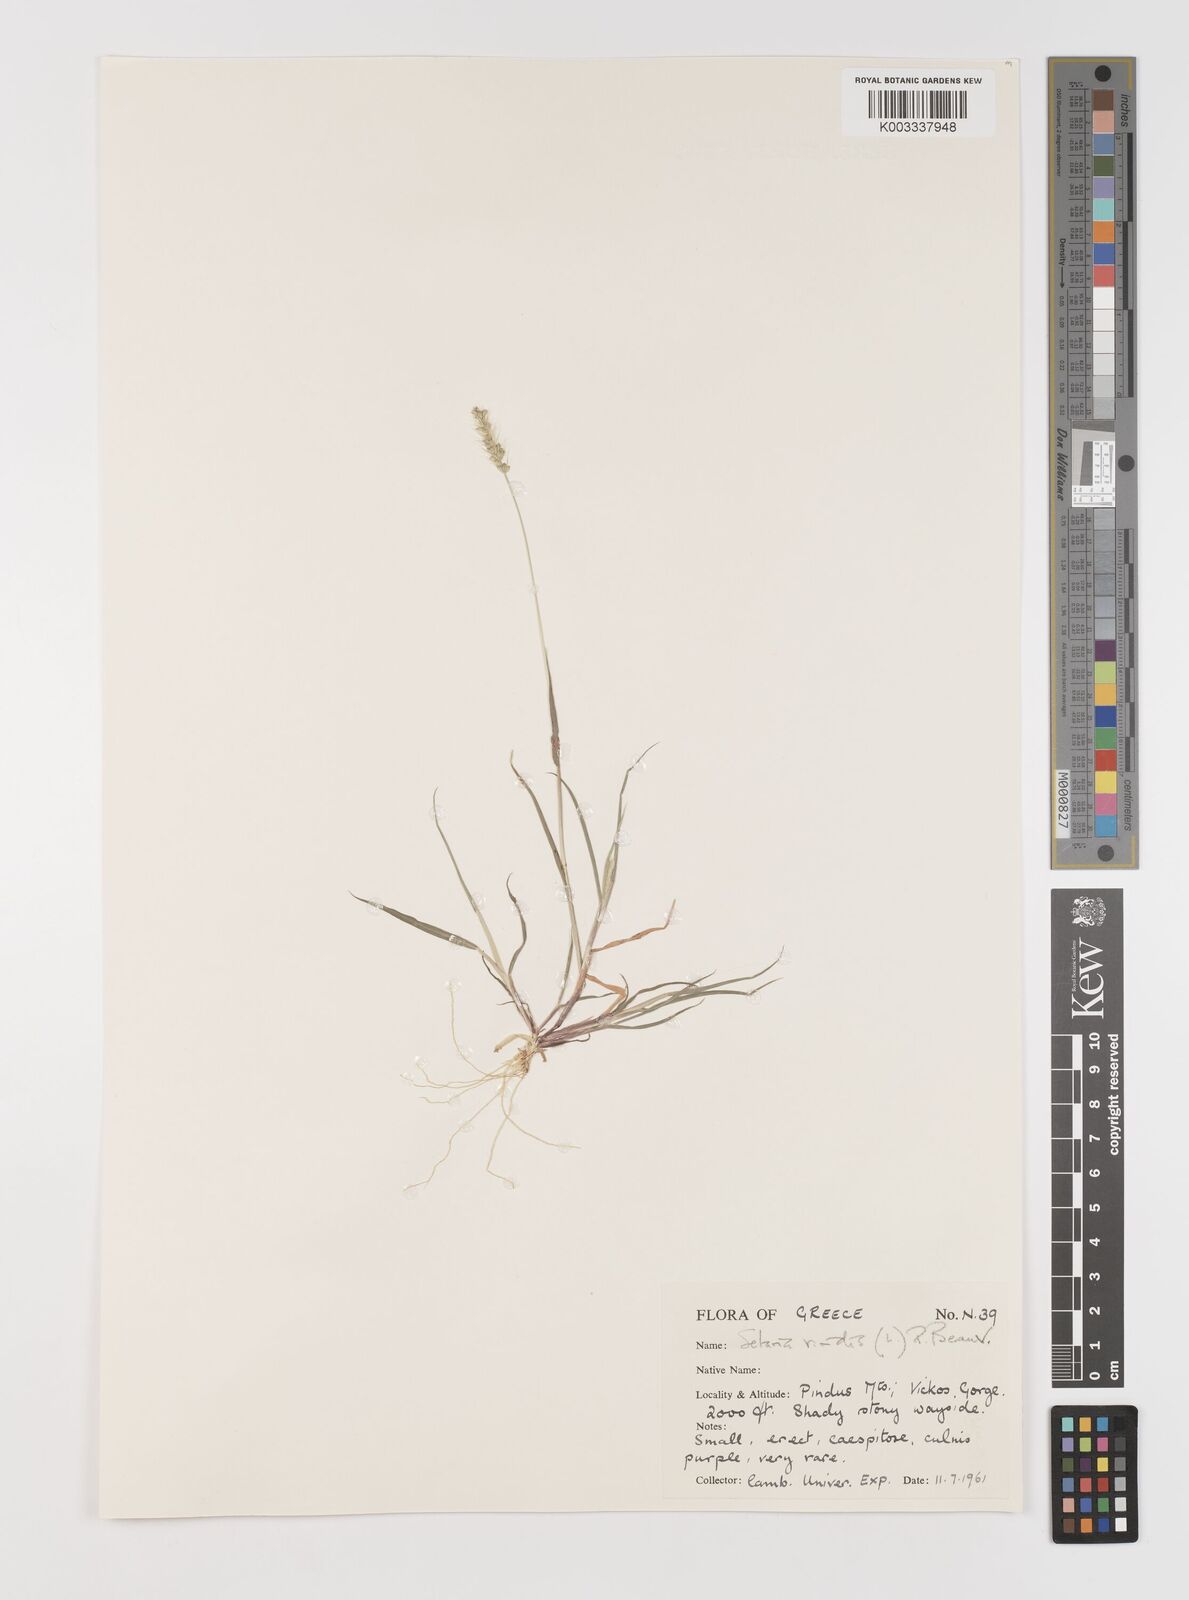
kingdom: Plantae
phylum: Tracheophyta
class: Liliopsida
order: Poales
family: Poaceae
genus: Setaria
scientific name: Setaria viridis
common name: Green bristlegrass
